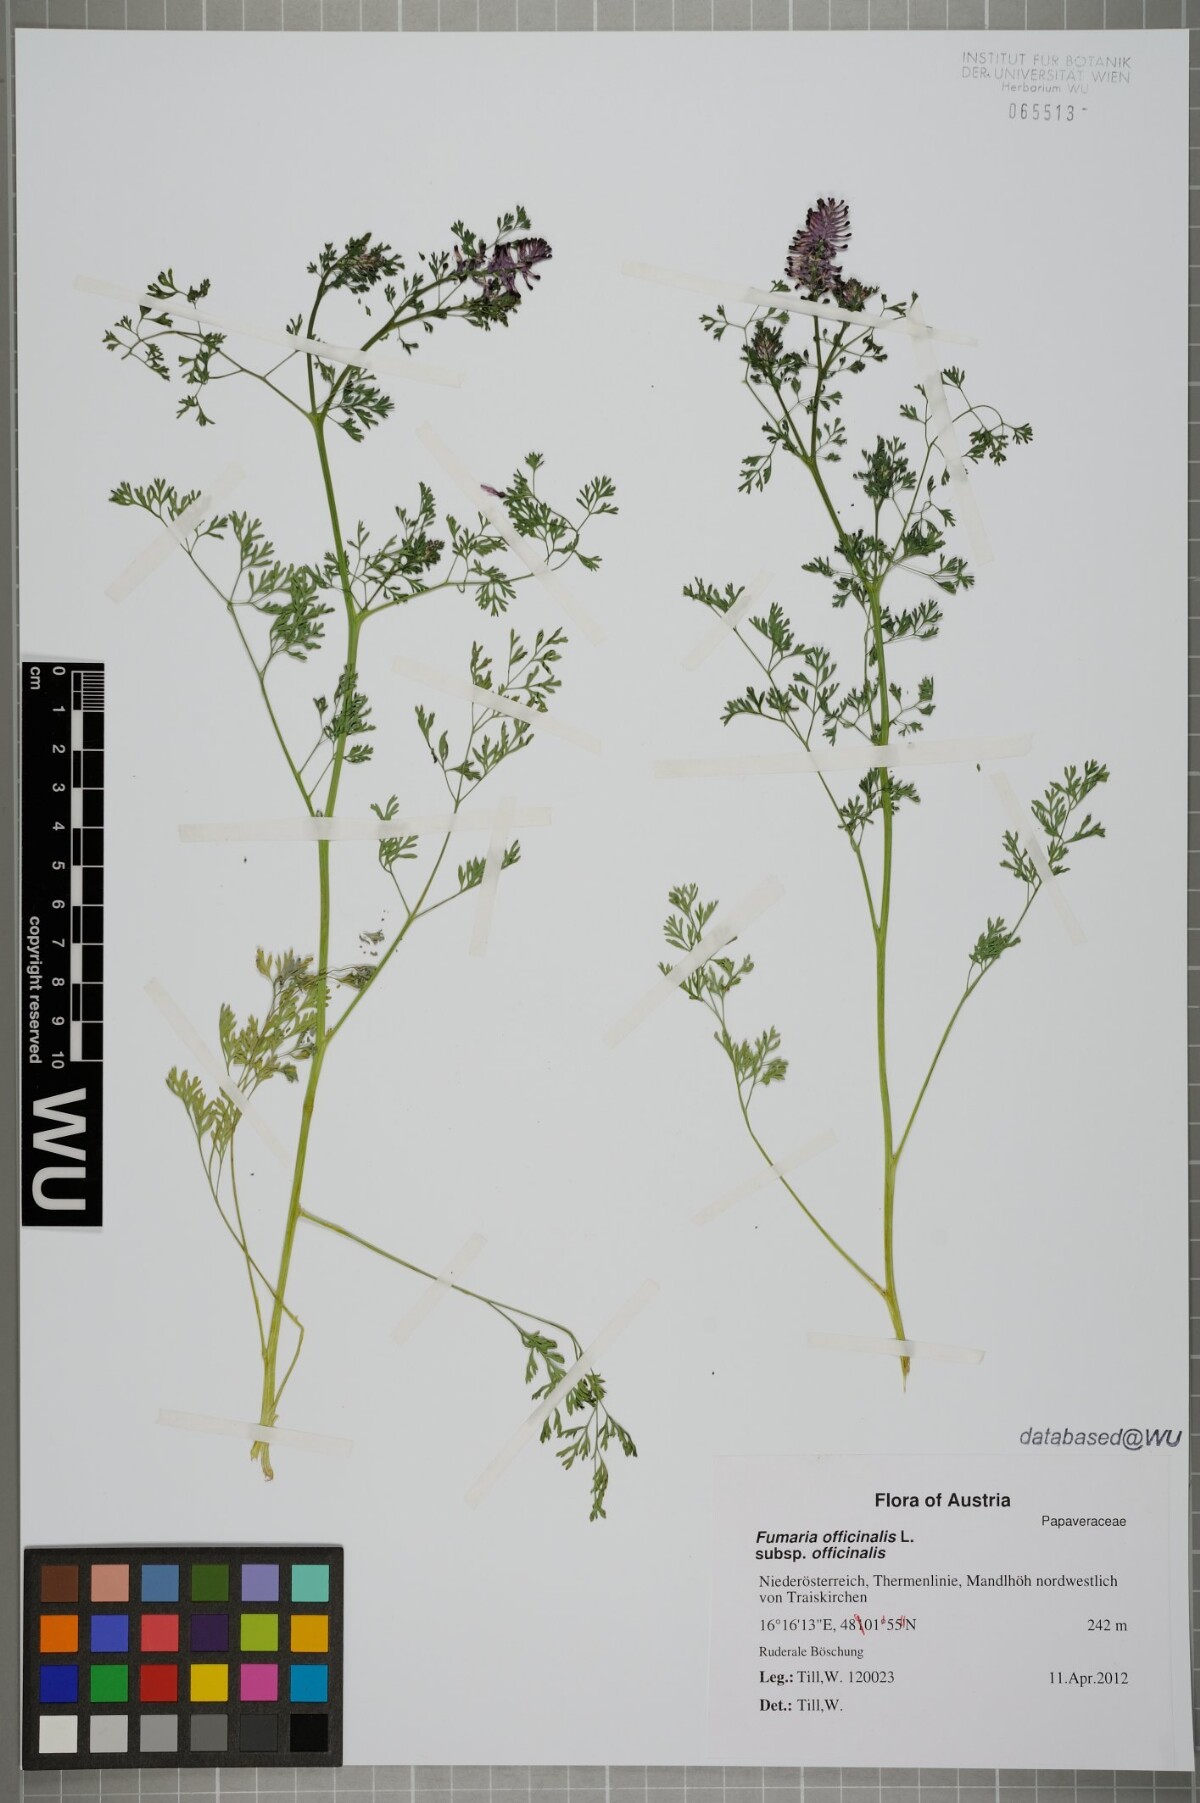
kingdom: Plantae
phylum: Tracheophyta
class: Magnoliopsida
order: Ranunculales
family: Papaveraceae
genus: Fumaria
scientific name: Fumaria officinalis
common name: Common fumitory
